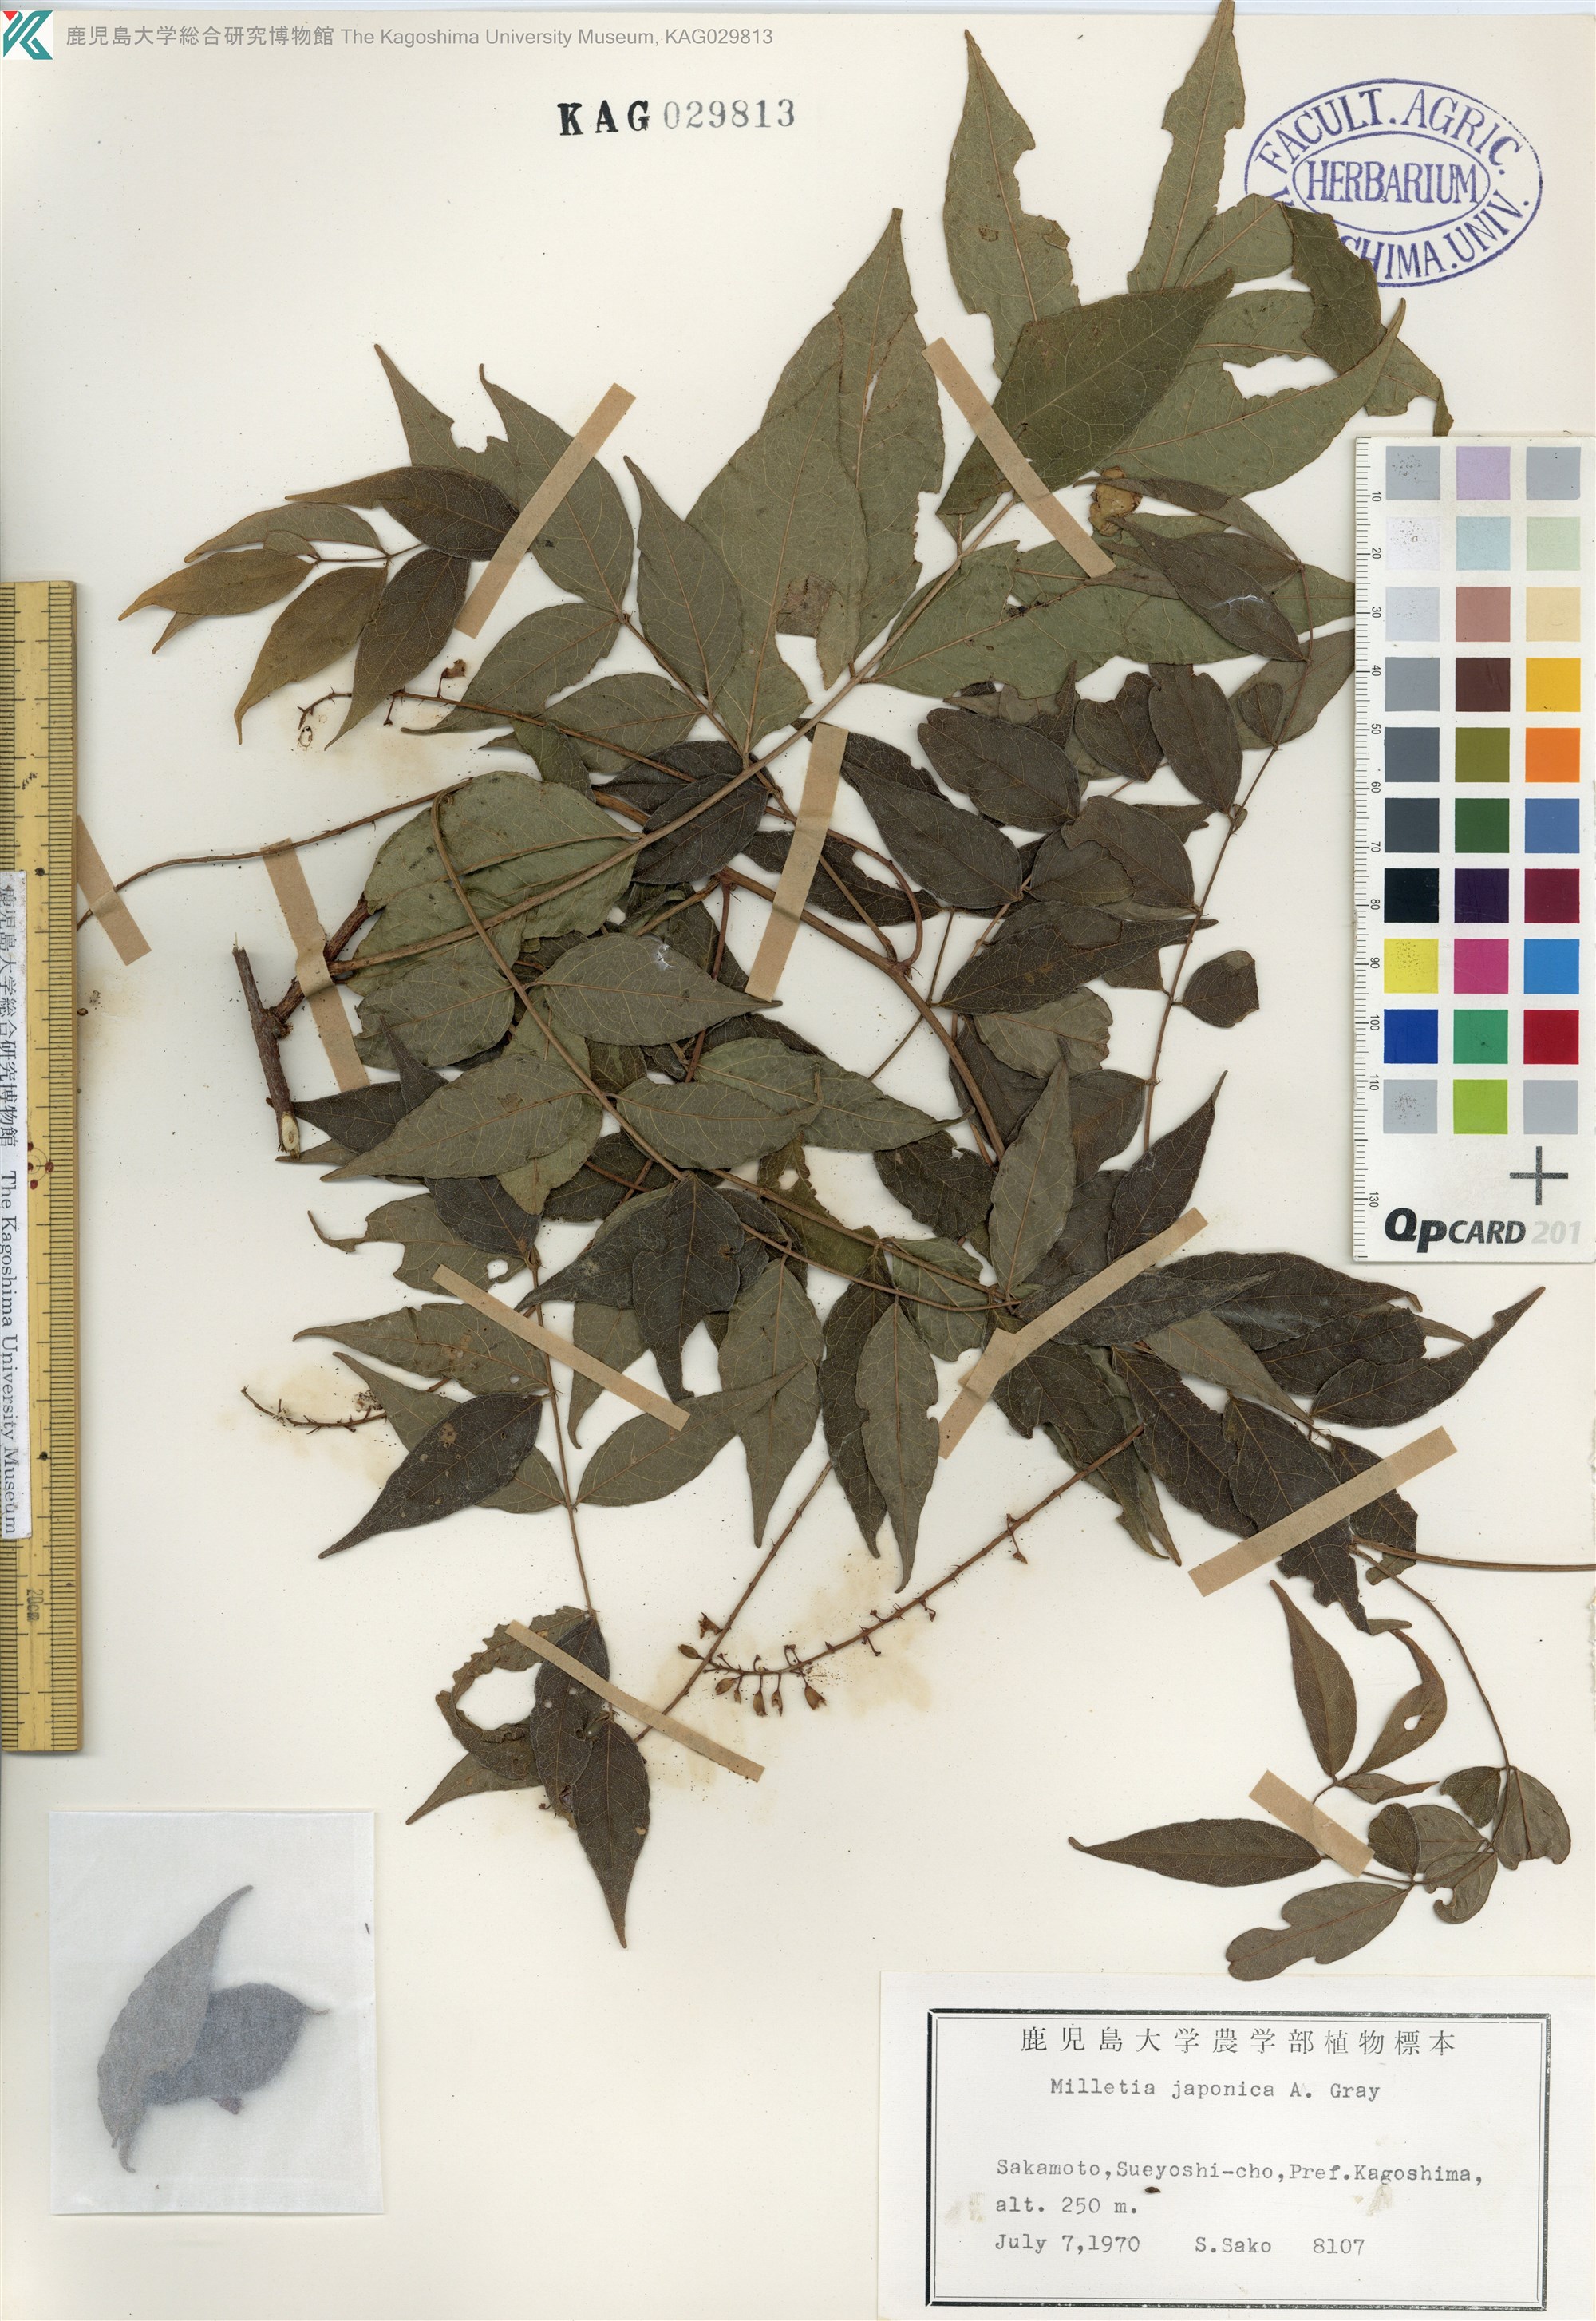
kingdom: Plantae
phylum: Tracheophyta
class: Magnoliopsida
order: Fabales
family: Fabaceae
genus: Wisteriopsis
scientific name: Wisteriopsis japonica
